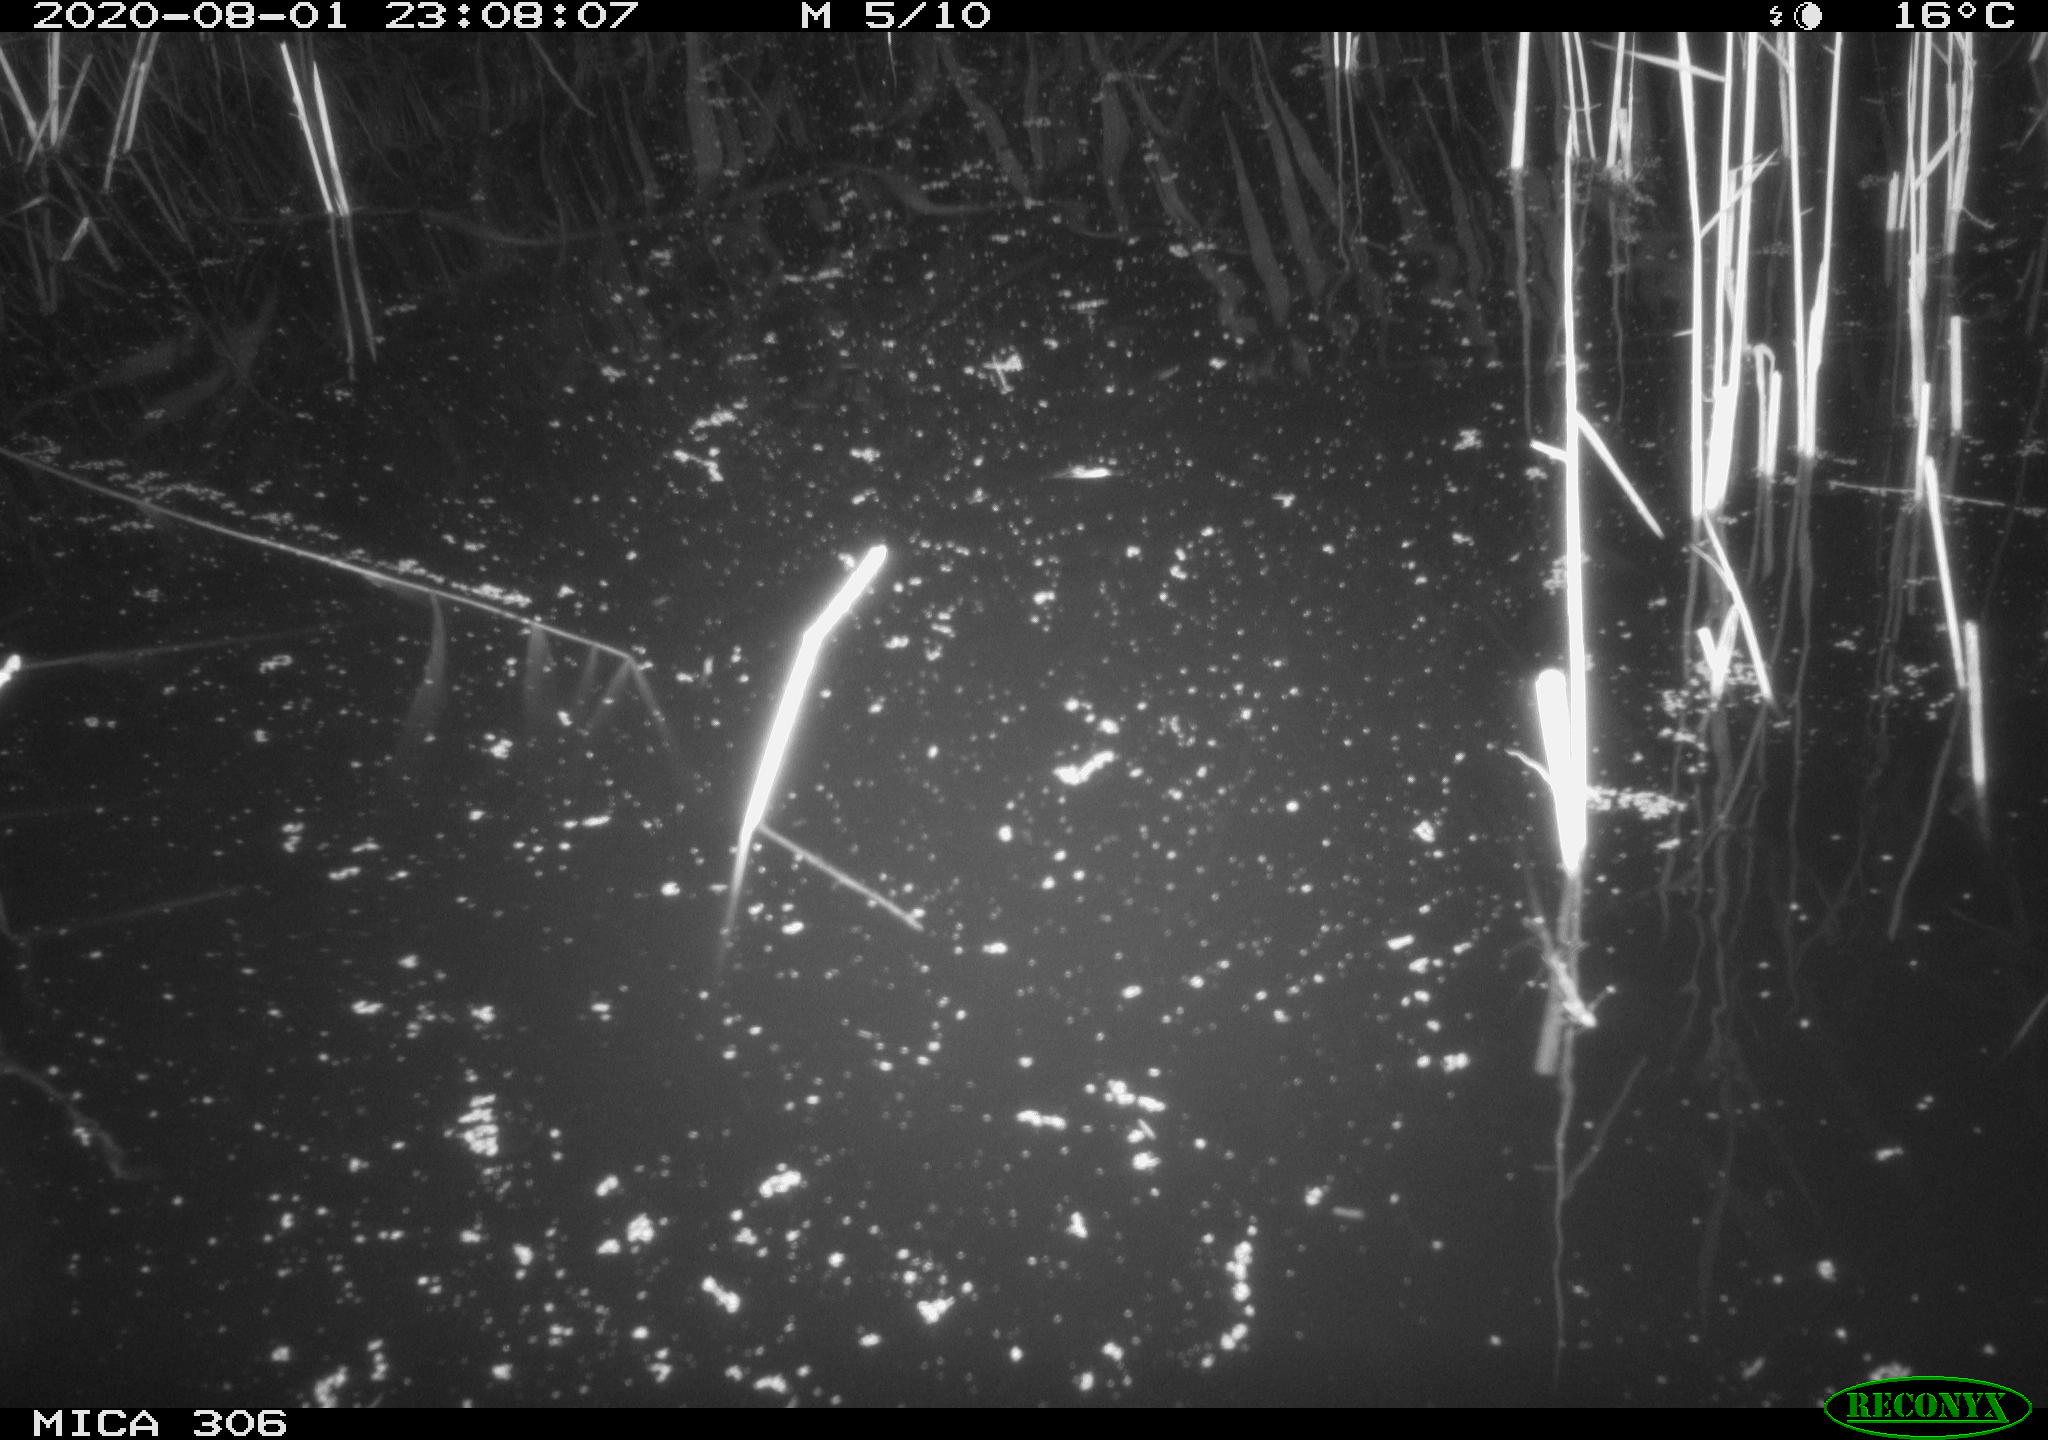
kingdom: Animalia
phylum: Chordata
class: Mammalia
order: Rodentia
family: Muridae
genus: Rattus
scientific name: Rattus norvegicus
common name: Brown rat
